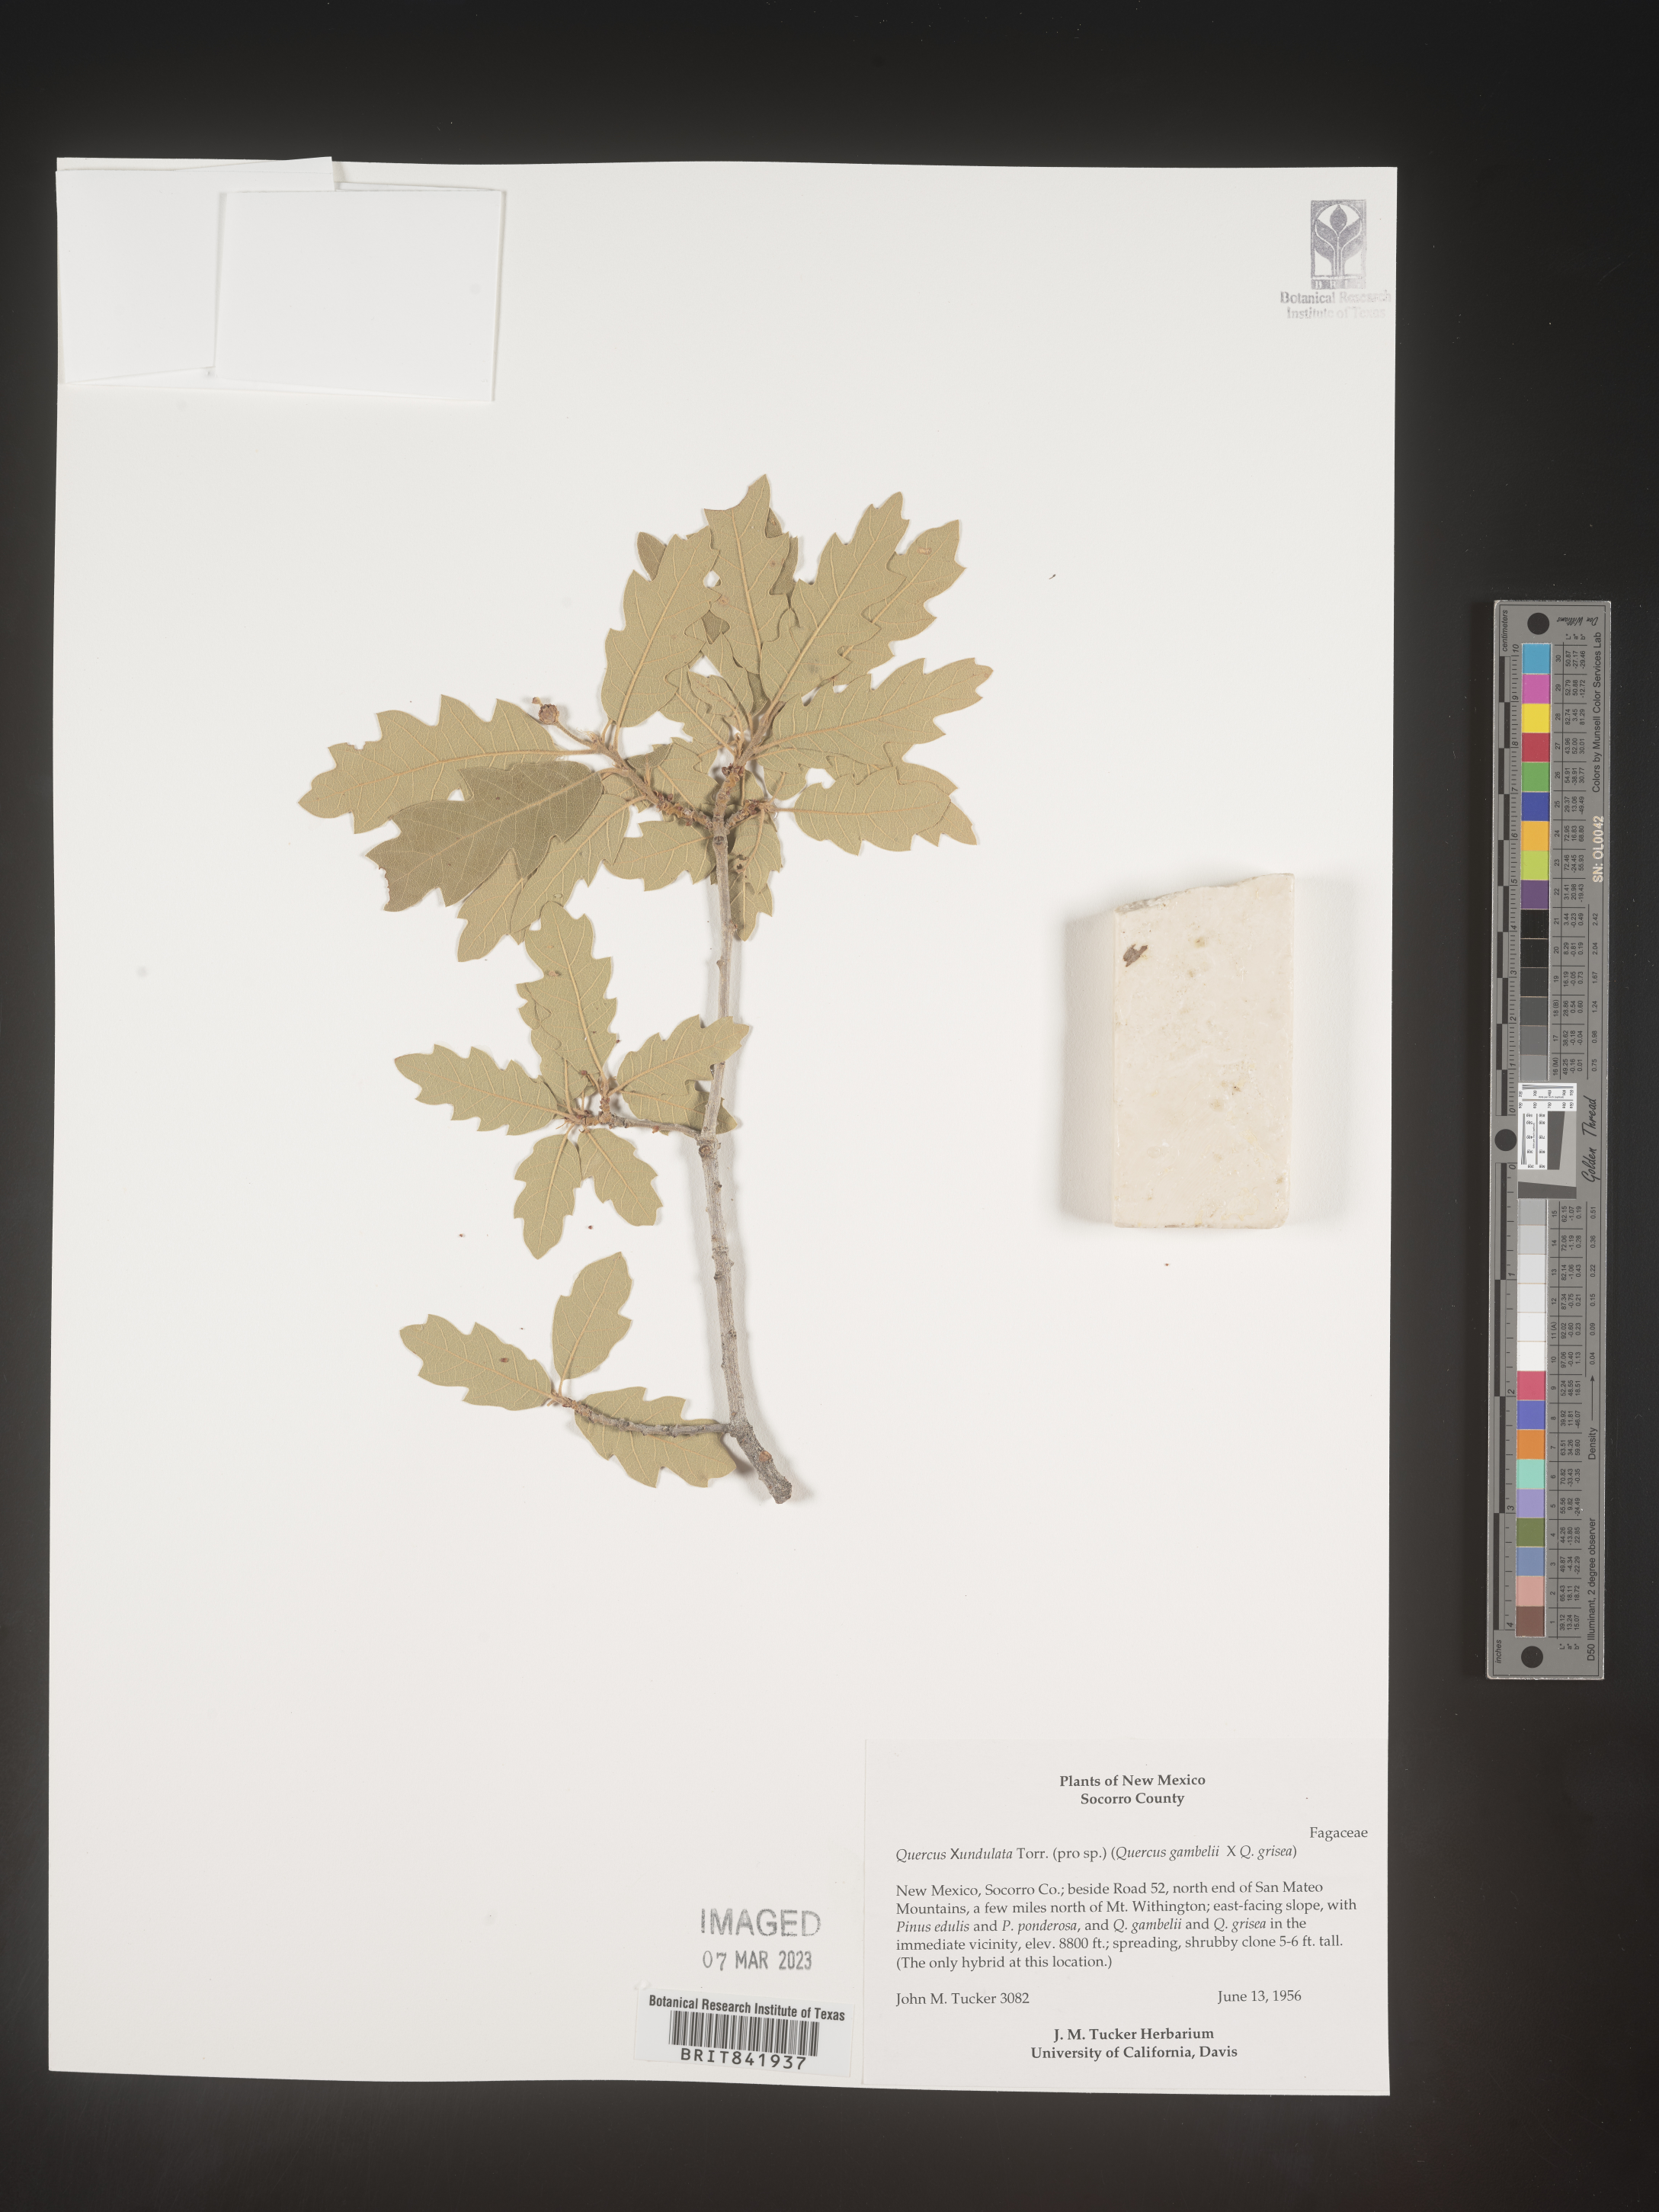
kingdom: Plantae
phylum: Tracheophyta
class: Magnoliopsida
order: Fagales
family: Fagaceae
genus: Quercus
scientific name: Quercus undulata
